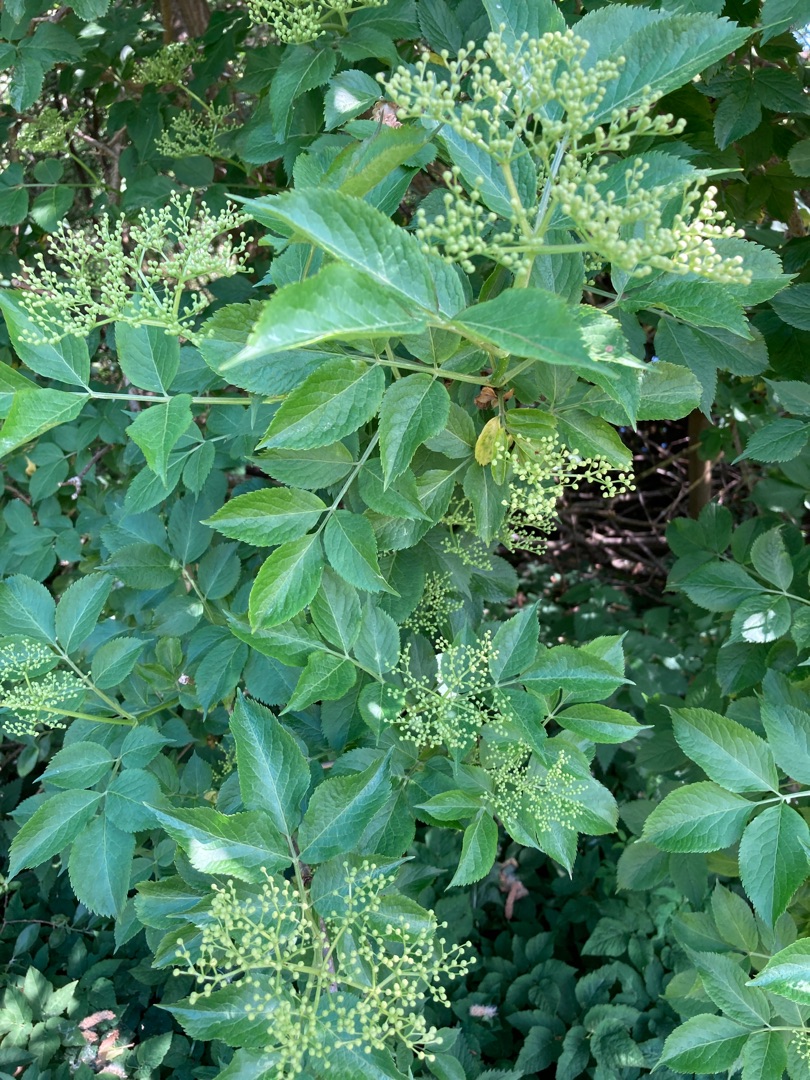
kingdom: Plantae
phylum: Tracheophyta
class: Magnoliopsida
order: Dipsacales
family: Viburnaceae
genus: Sambucus
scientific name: Sambucus nigra
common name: Almindelig hyld
